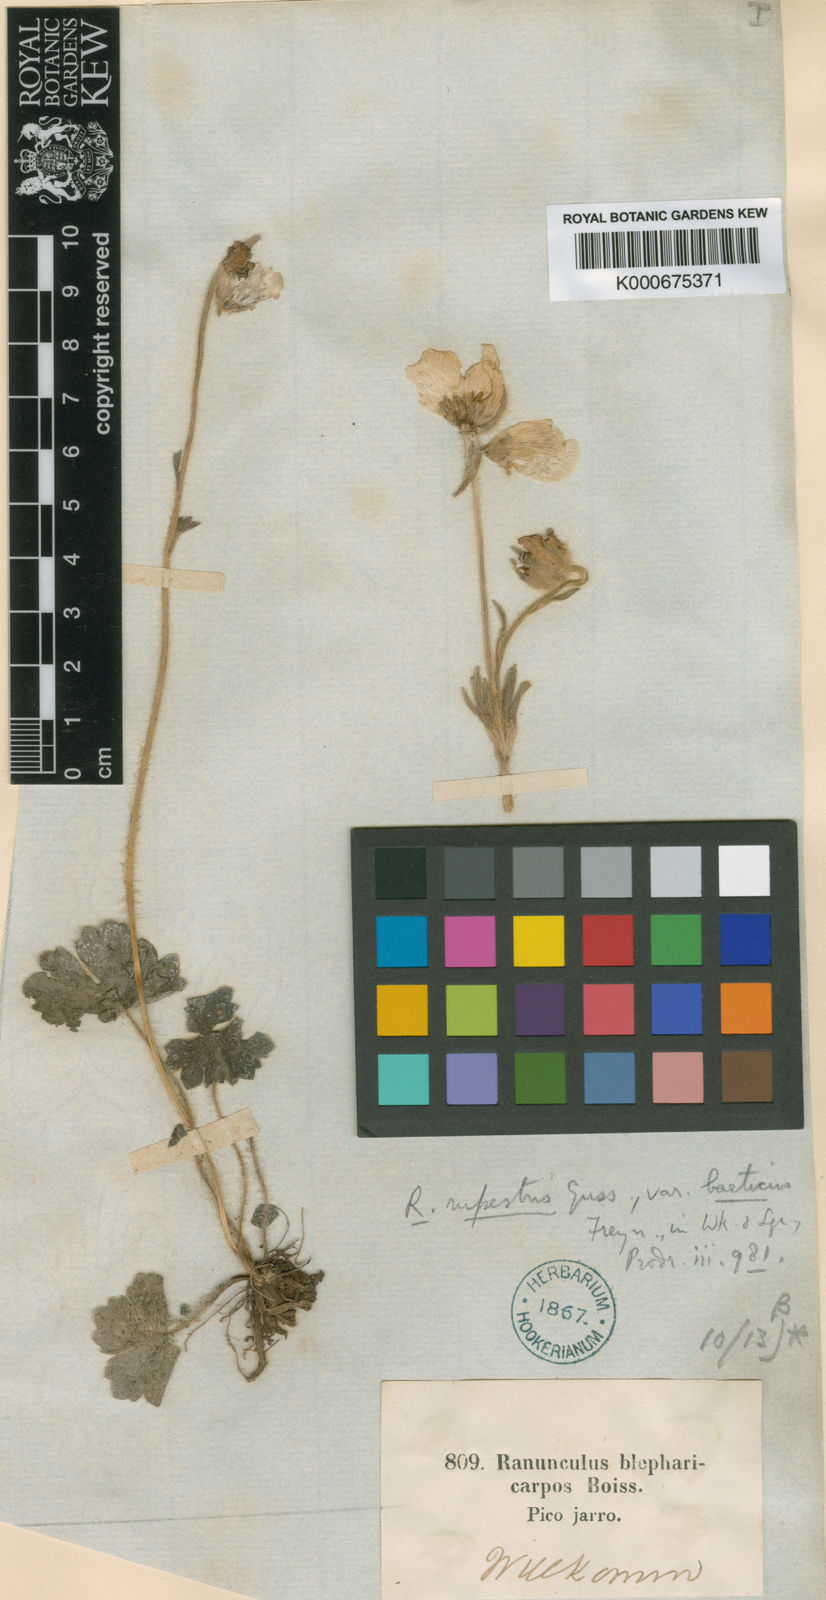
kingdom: Plantae
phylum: Tracheophyta
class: Magnoliopsida
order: Ranunculales
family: Ranunculaceae
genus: Ranunculus
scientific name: Ranunculus spicatus
